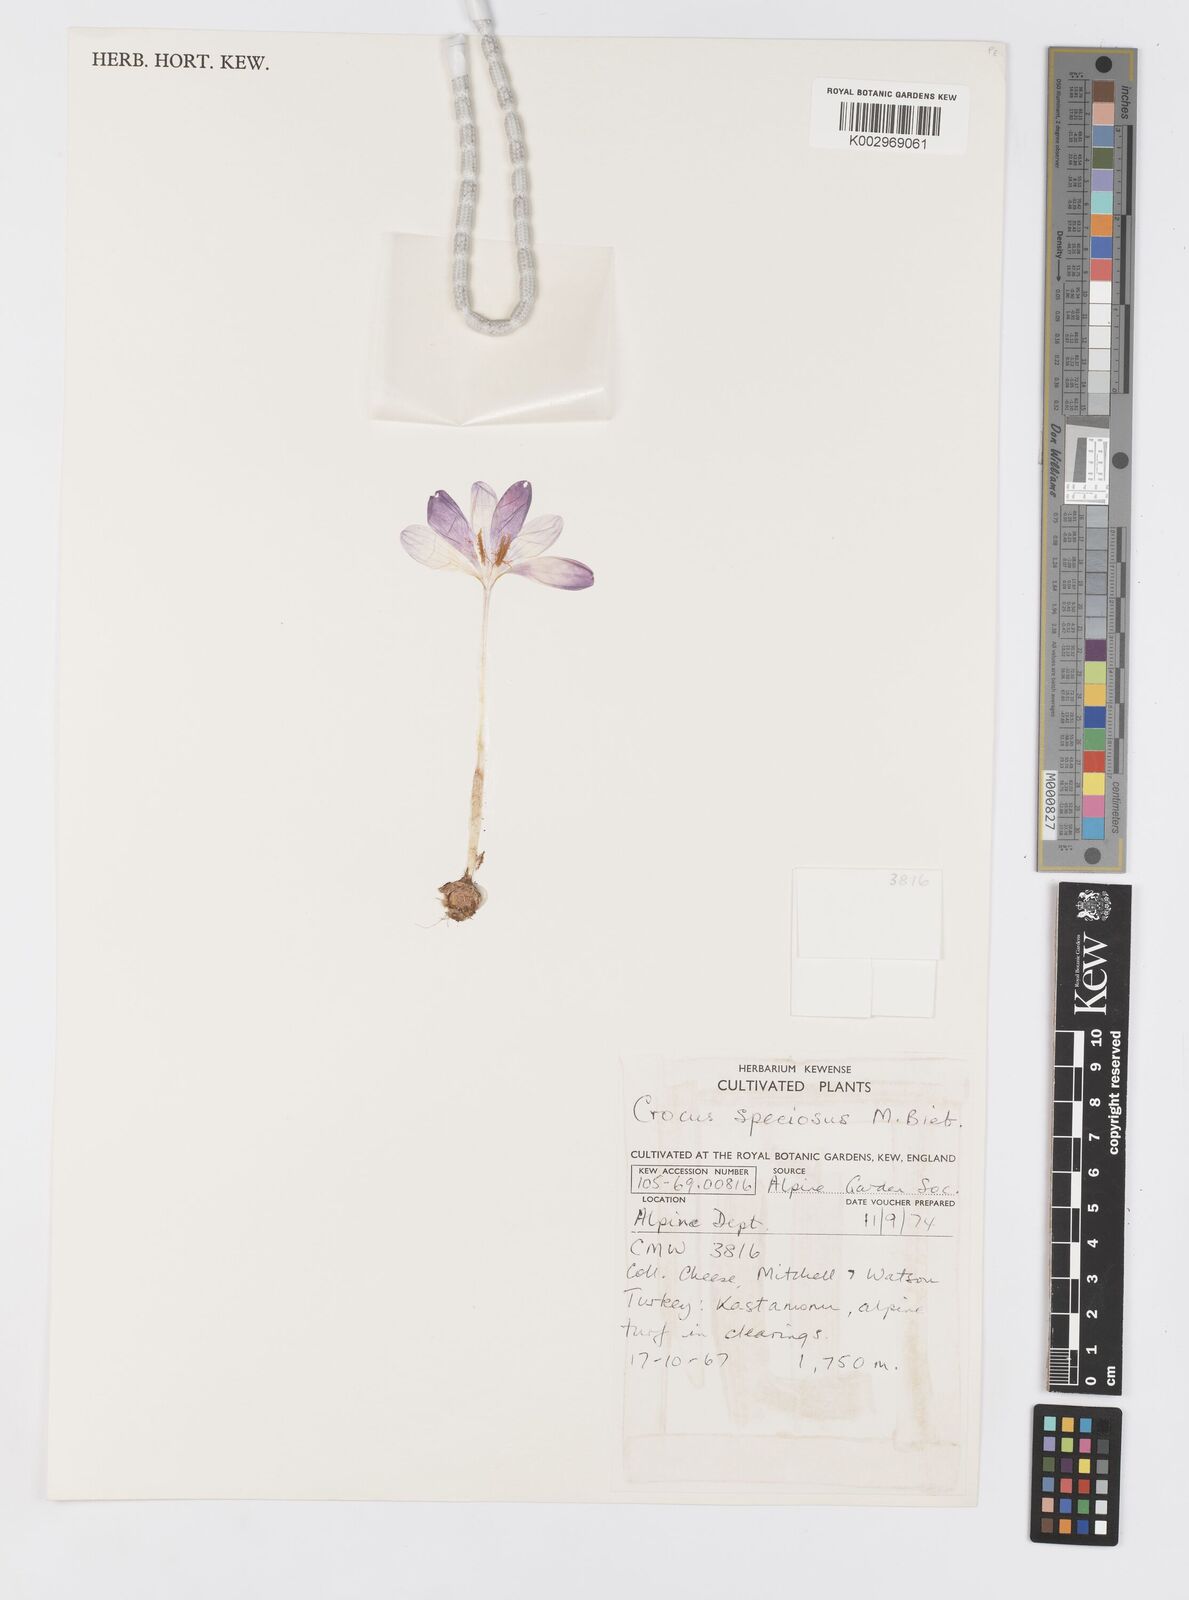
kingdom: Plantae
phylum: Tracheophyta
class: Liliopsida
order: Asparagales
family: Iridaceae
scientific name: Iridaceae
